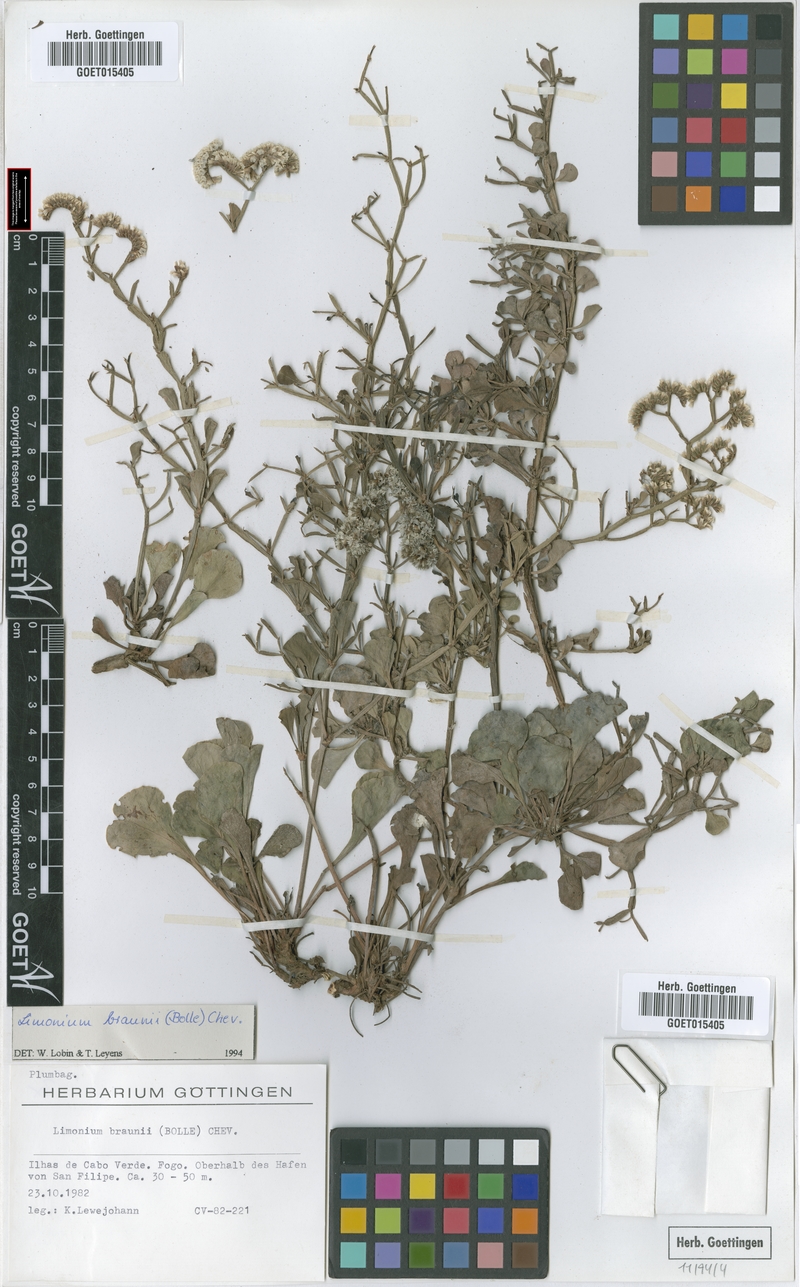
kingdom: Plantae
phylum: Tracheophyta
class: Magnoliopsida
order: Caryophyllales
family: Plumbaginaceae
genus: Limonium
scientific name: Limonium braunii
